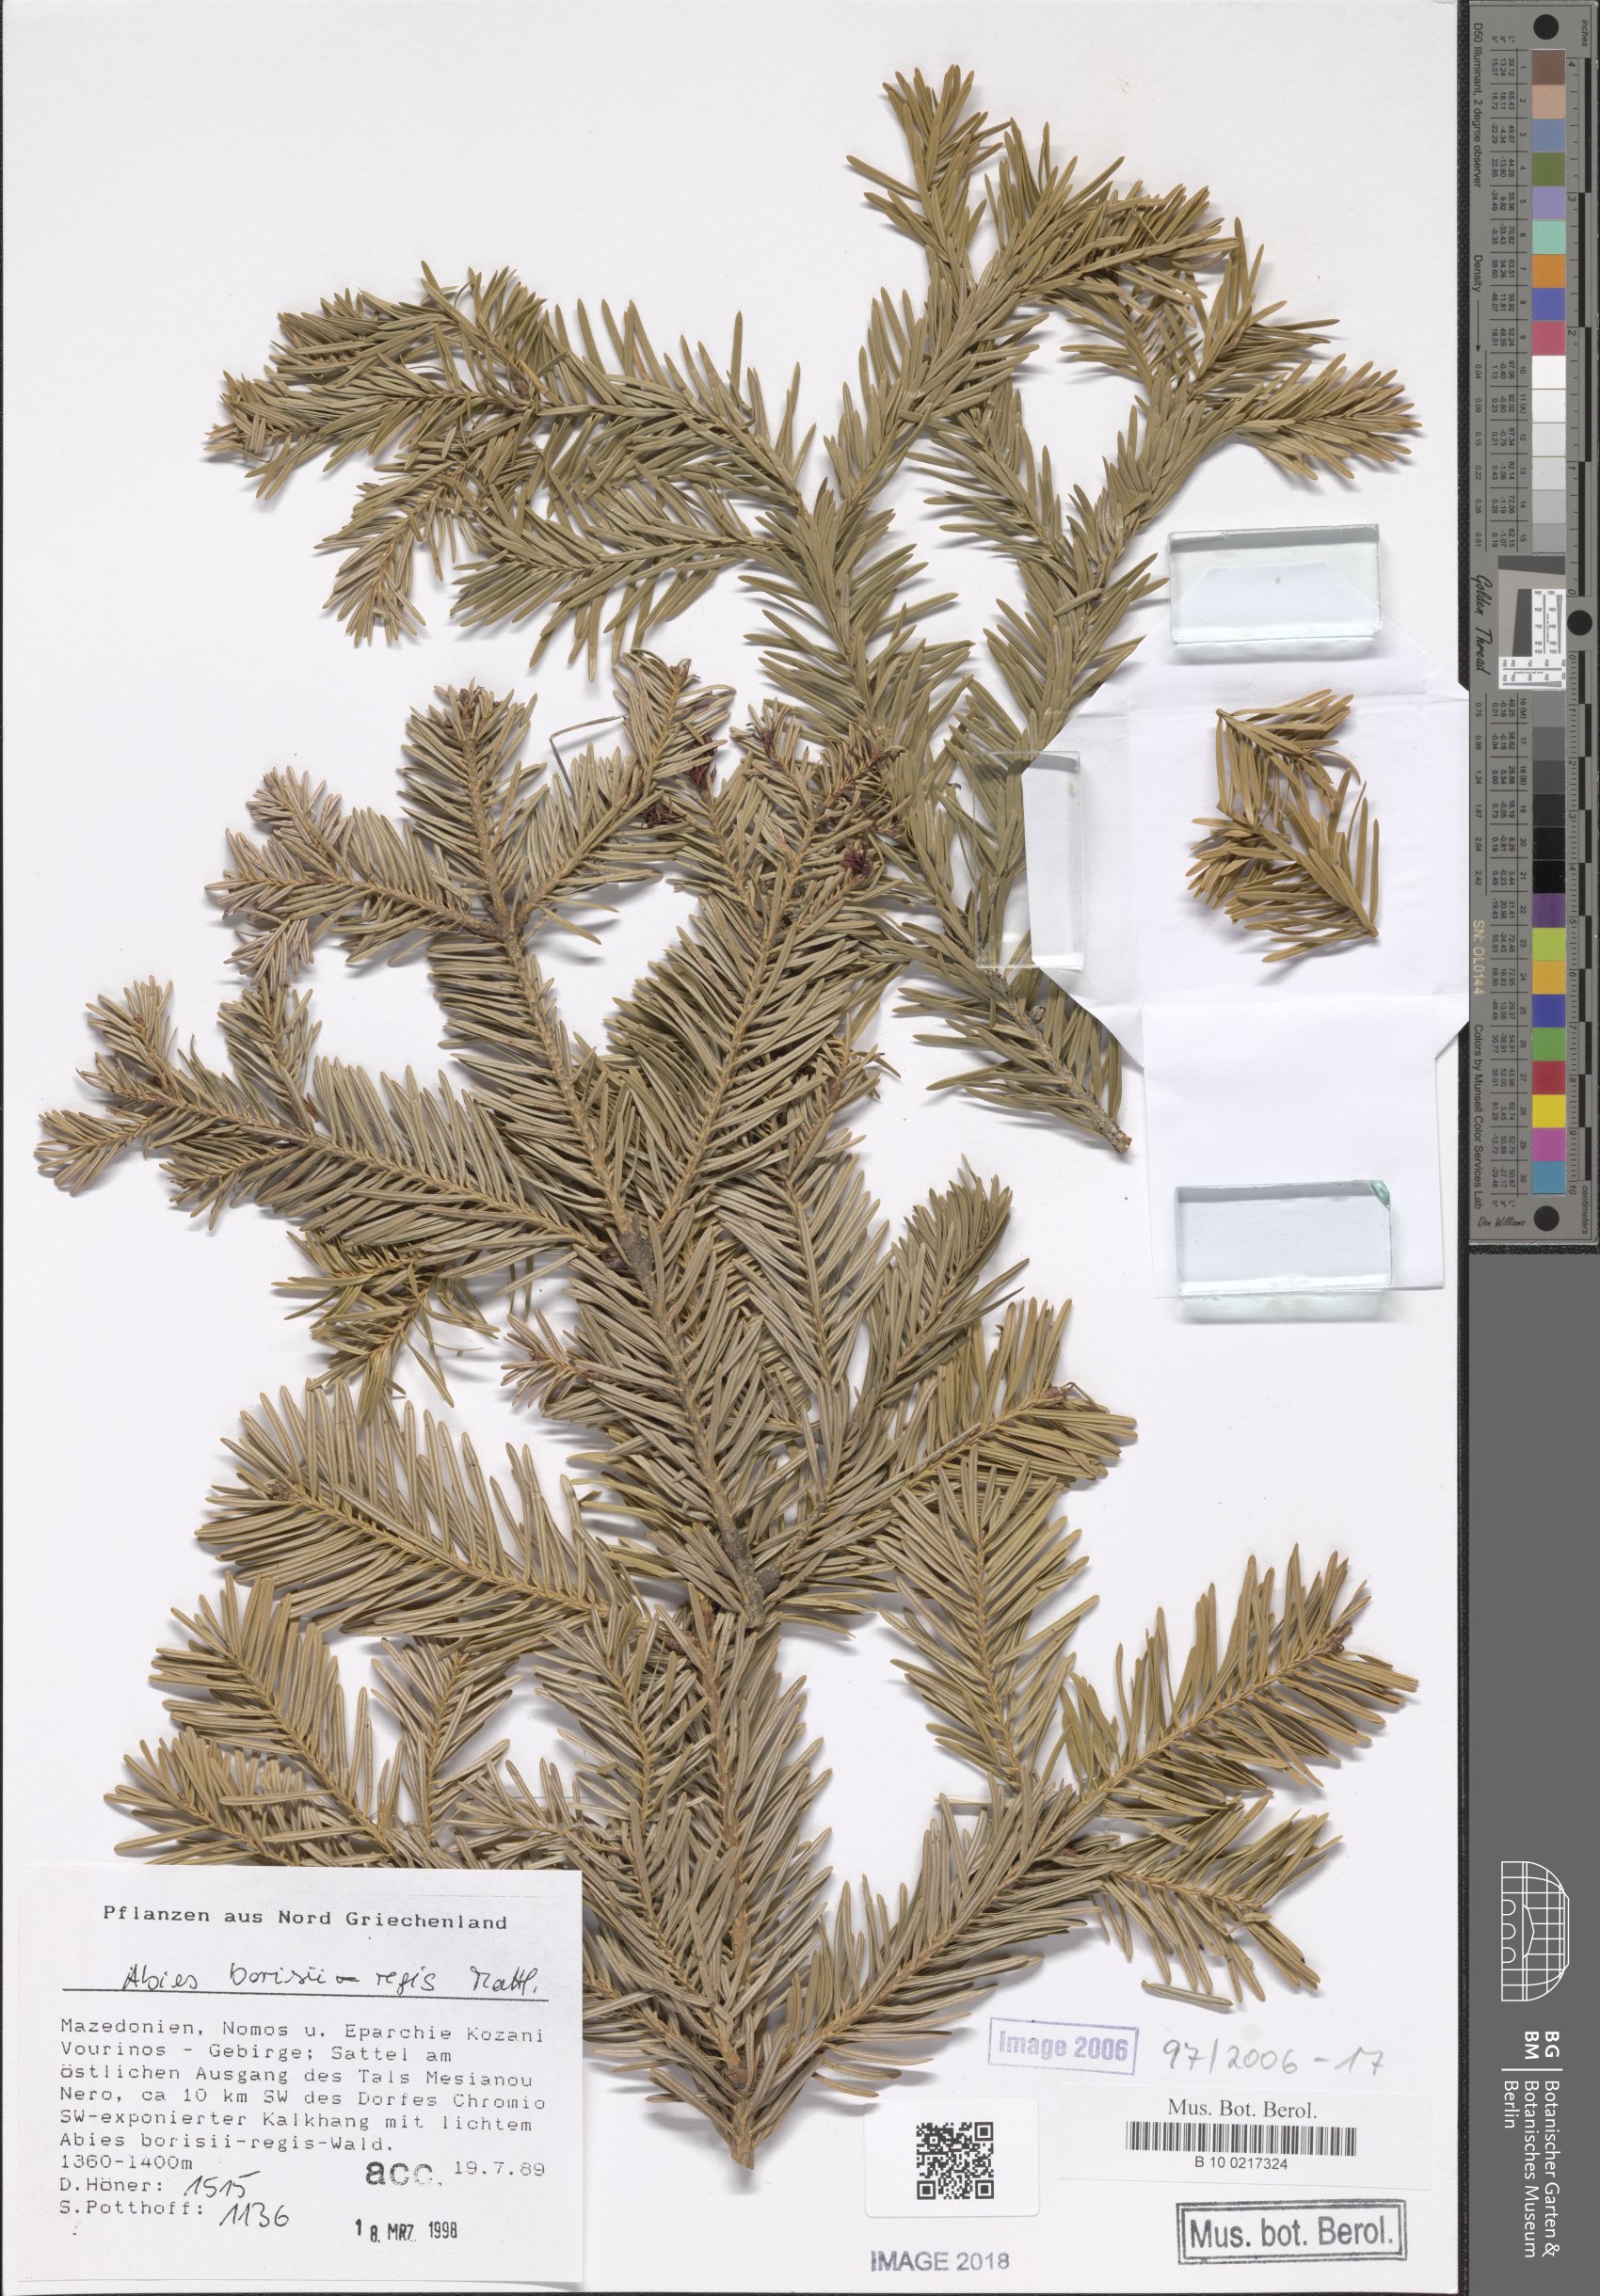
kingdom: Plantae
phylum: Tracheophyta
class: Pinopsida
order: Pinales
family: Pinaceae
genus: Abies
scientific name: Abies borisii-regis
